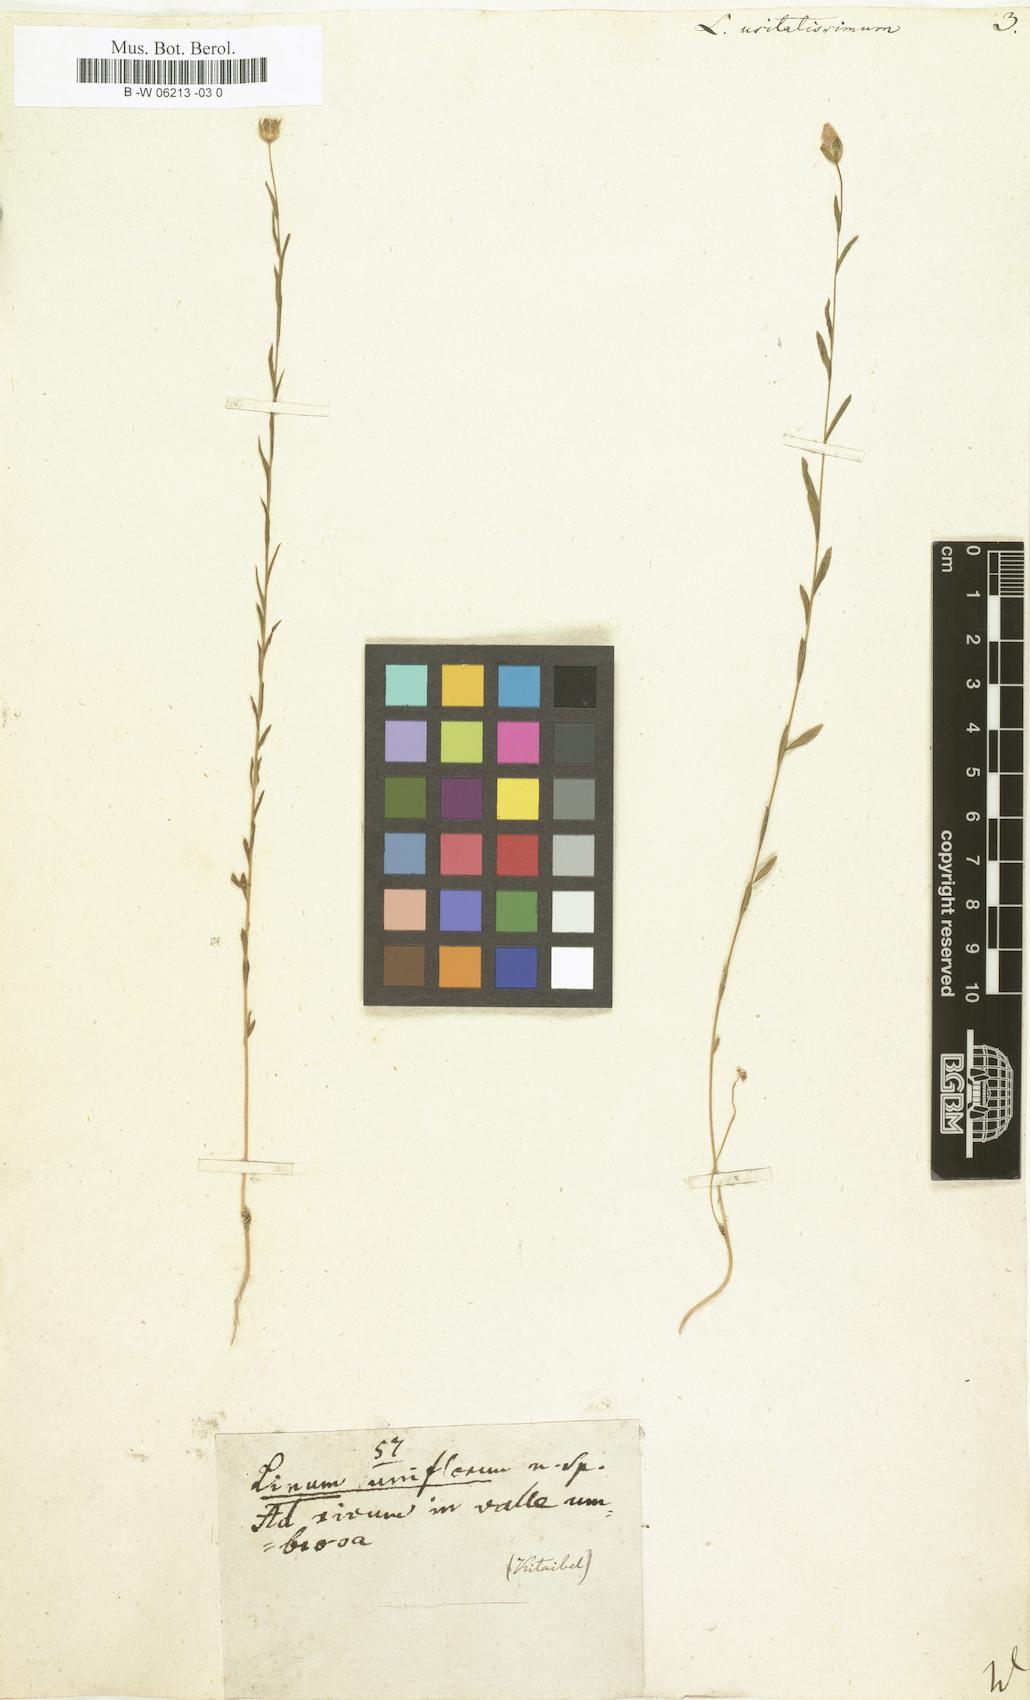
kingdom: Plantae
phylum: Tracheophyta
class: Magnoliopsida
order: Malpighiales
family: Linaceae
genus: Linum
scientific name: Linum usitatissimum
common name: Flax
